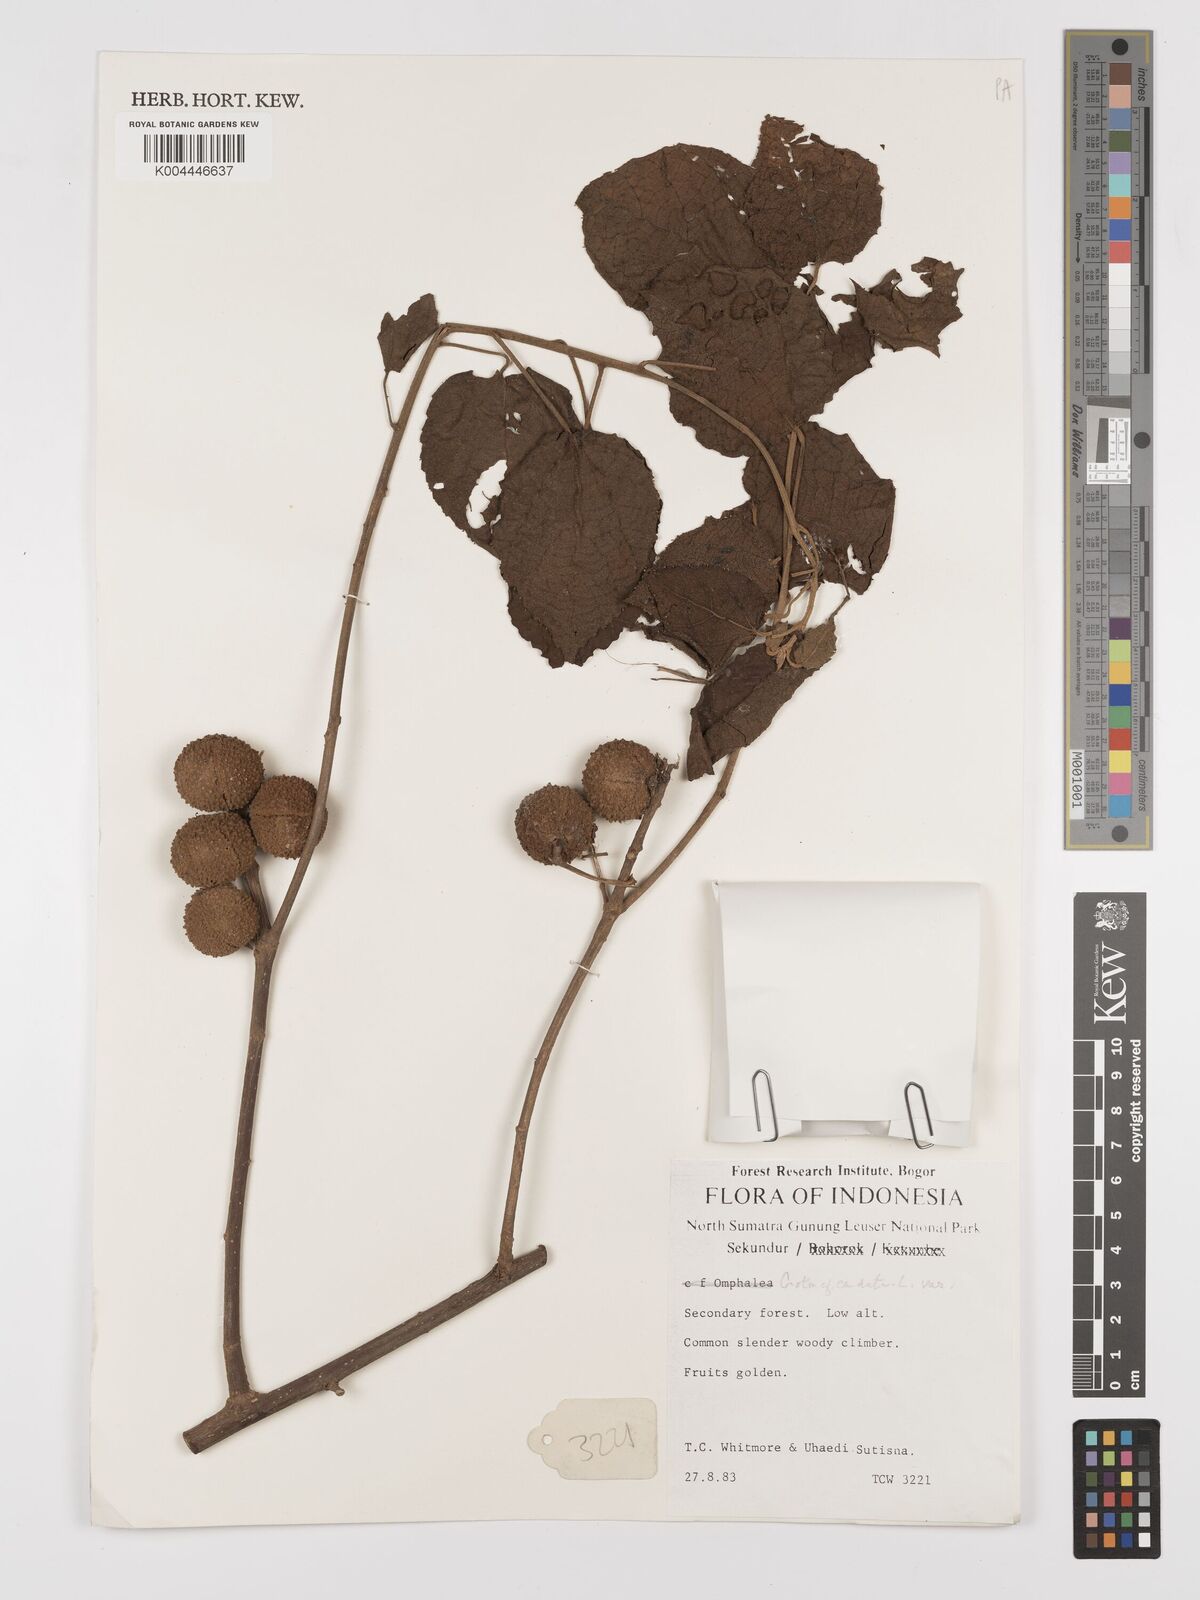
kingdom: Plantae
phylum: Tracheophyta
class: Magnoliopsida
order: Malpighiales
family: Euphorbiaceae
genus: Croton
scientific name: Croton caudatus
